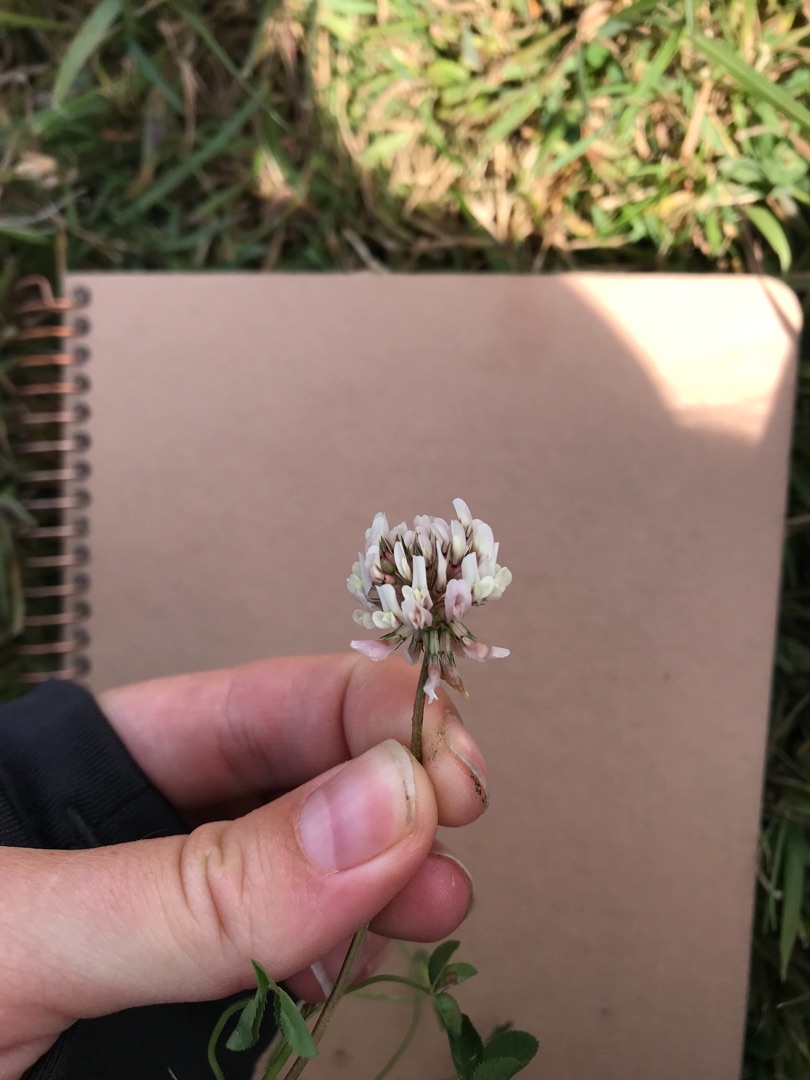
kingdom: Plantae
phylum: Tracheophyta
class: Magnoliopsida
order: Fabales
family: Fabaceae
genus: Trifolium
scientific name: Trifolium repens
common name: Hvid-kløver
